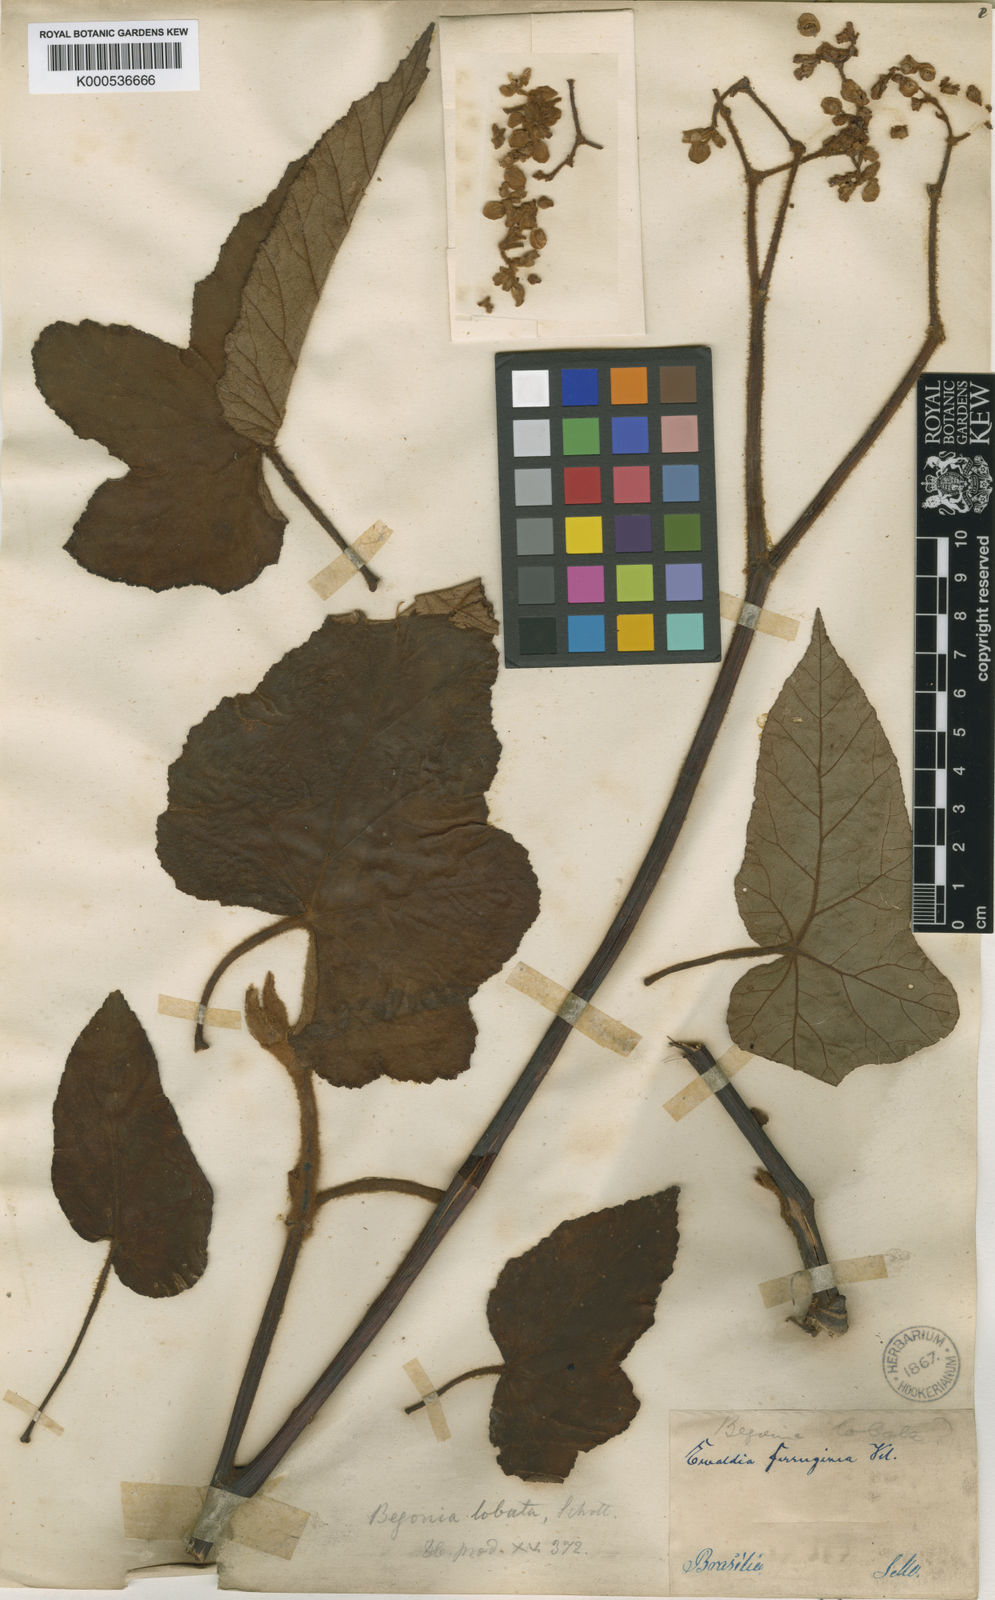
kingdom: Plantae
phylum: Tracheophyta
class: Magnoliopsida
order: Cucurbitales
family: Begoniaceae
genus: Begonia
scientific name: Begonia rufa
